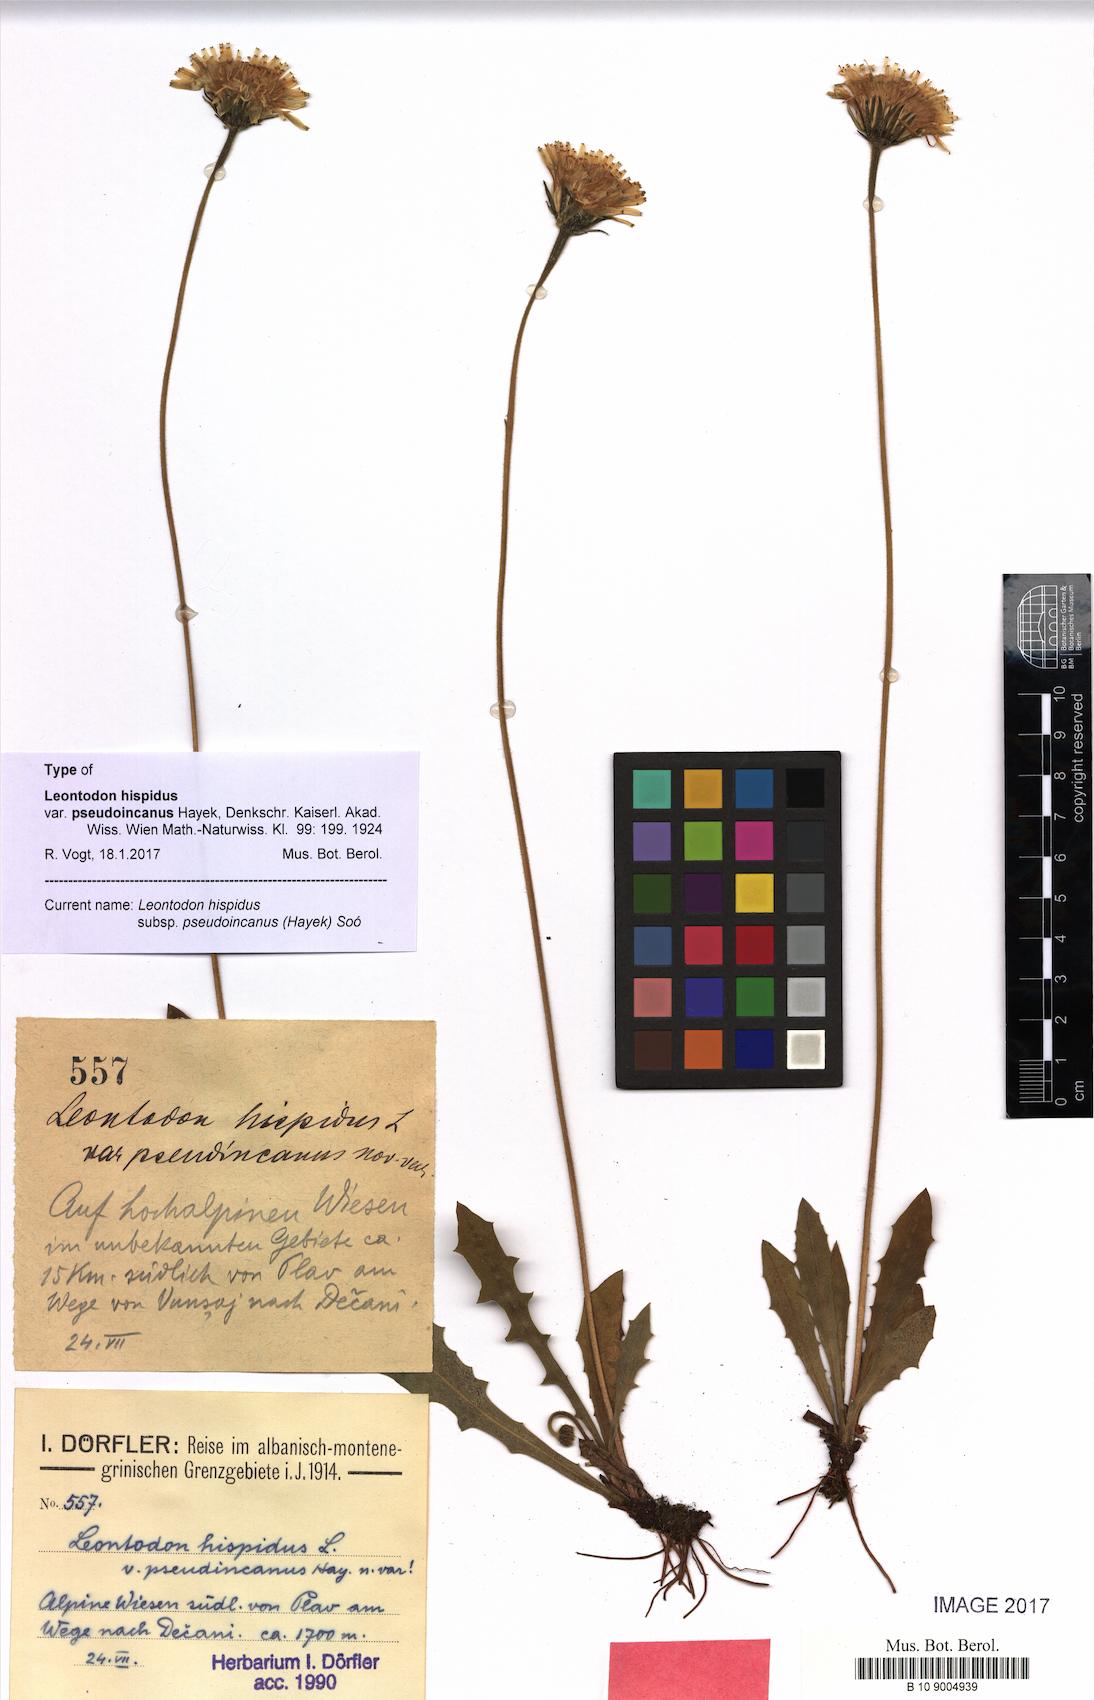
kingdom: Plantae
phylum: Tracheophyta
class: Magnoliopsida
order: Asterales
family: Asteraceae
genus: Leontodon
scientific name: Leontodon hispidus
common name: Rough hawkbit
